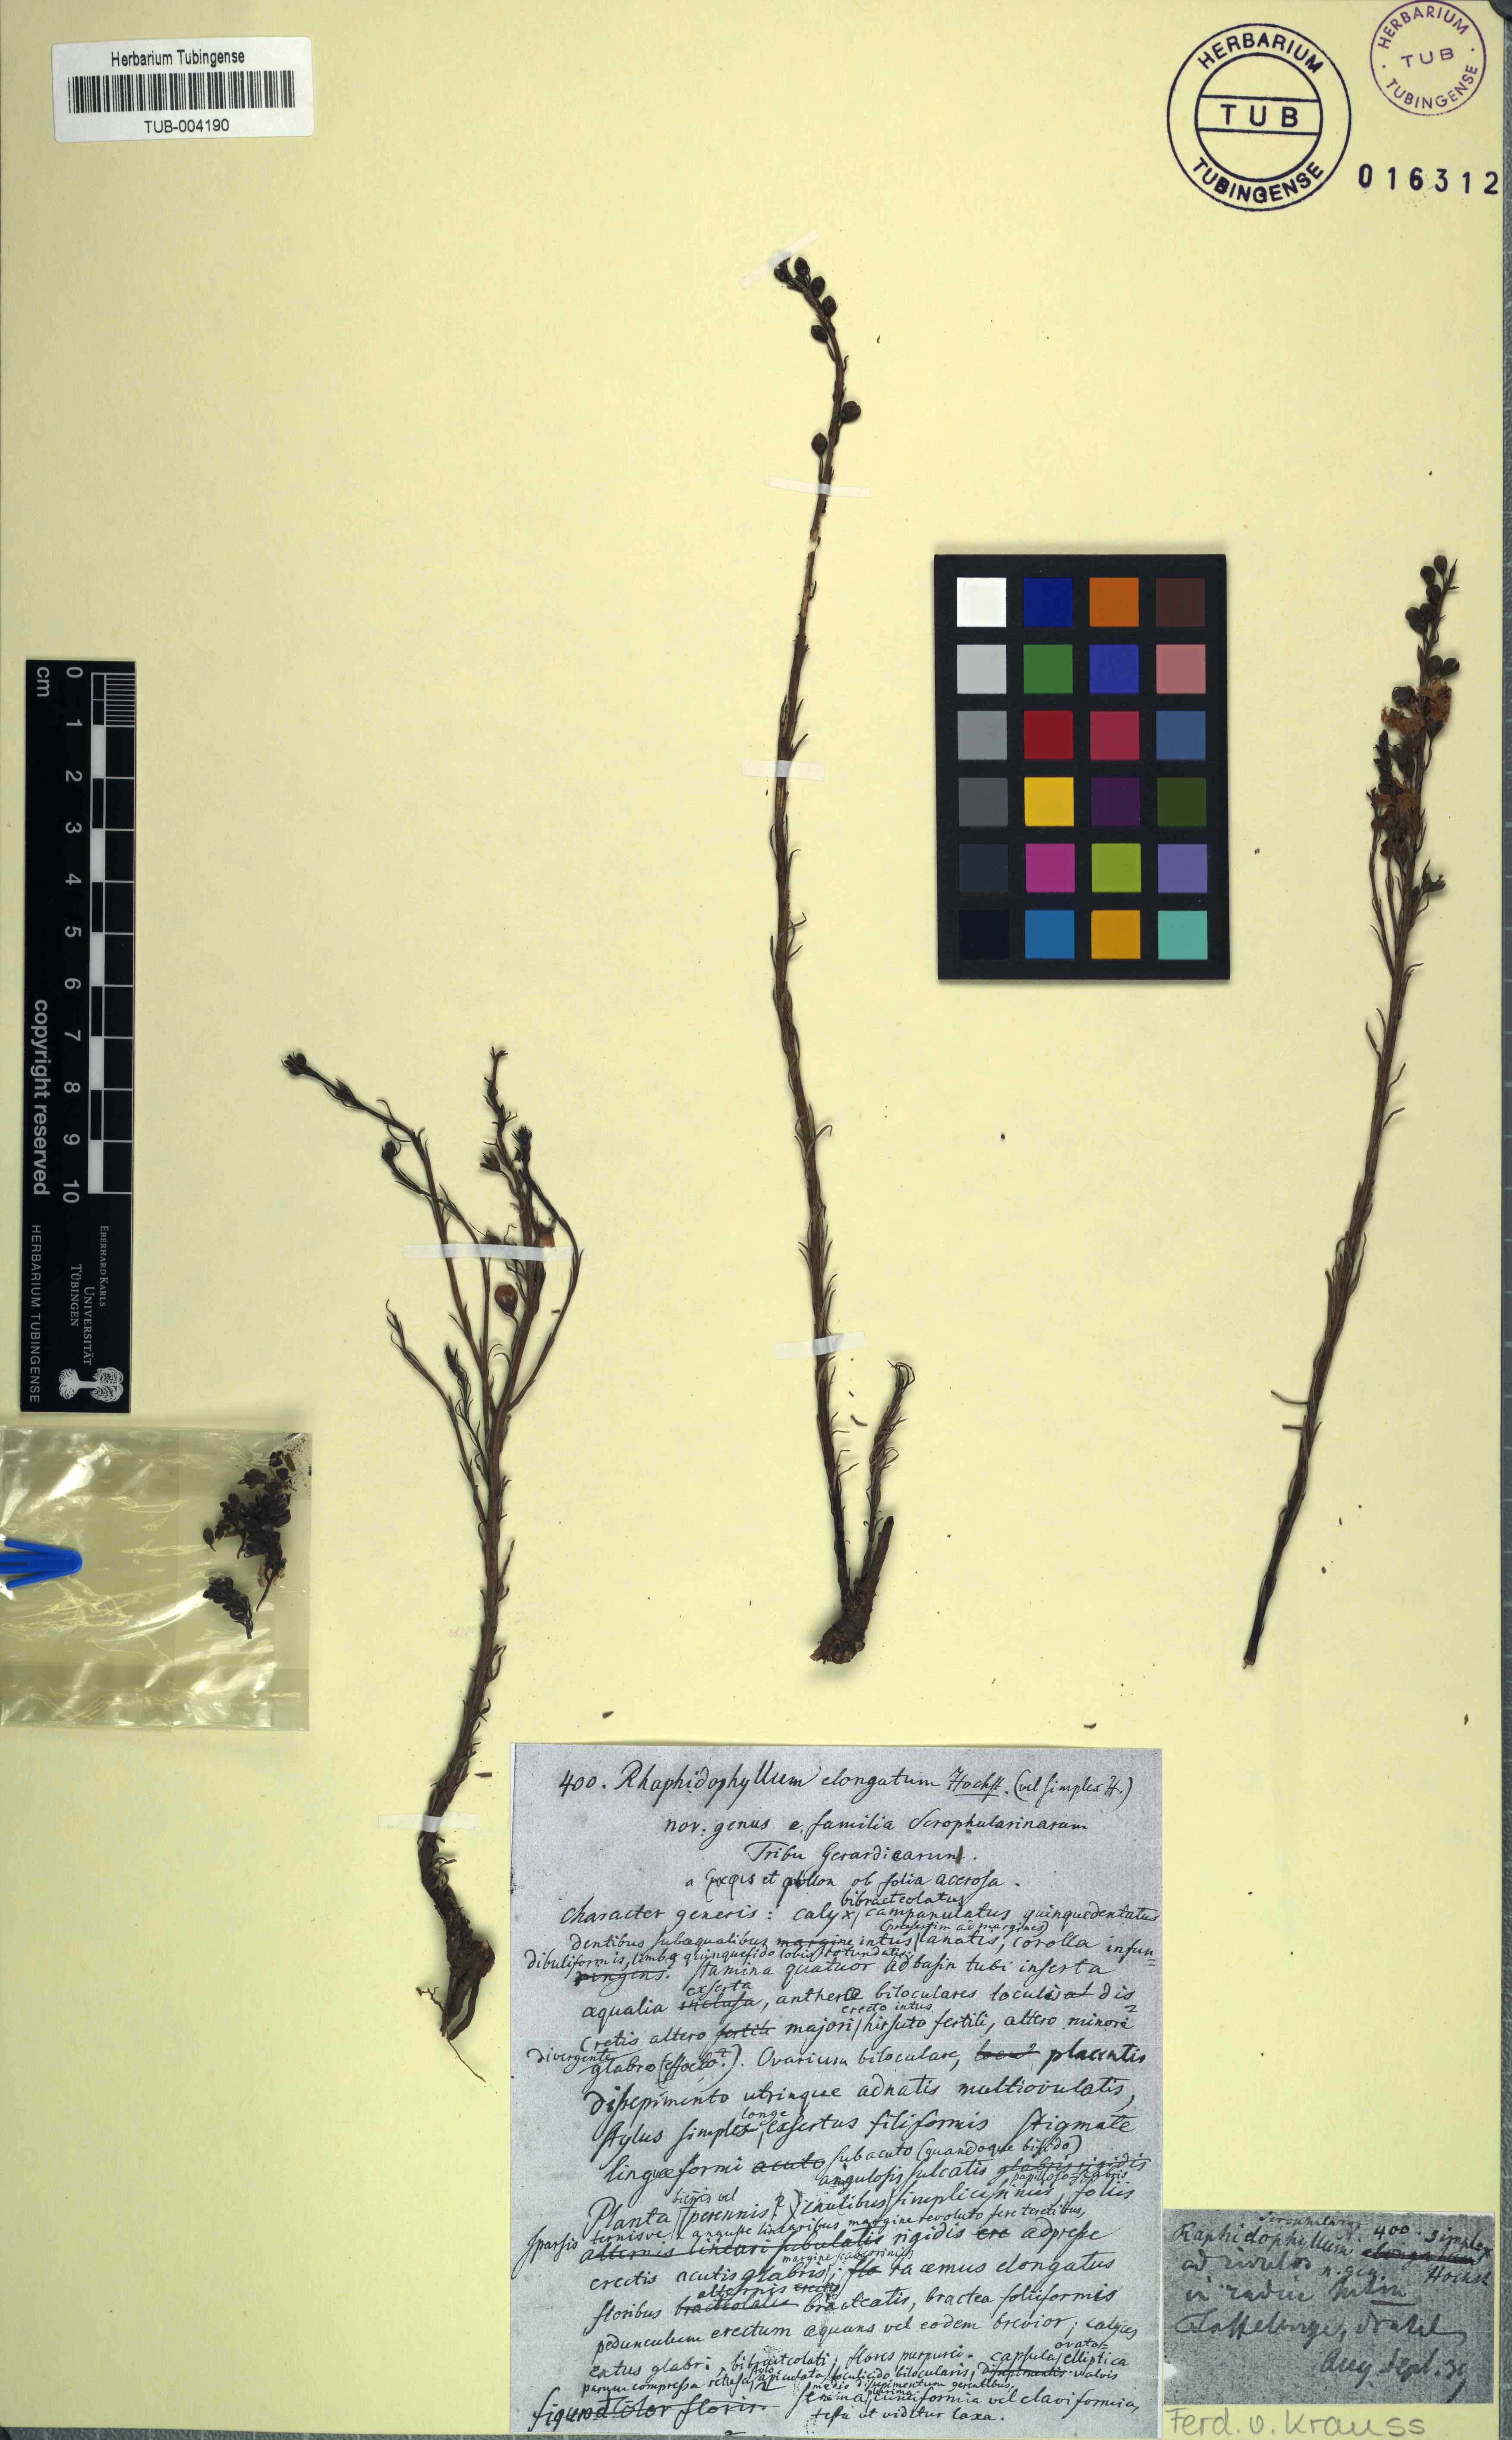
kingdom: Plantae
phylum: Tracheophyta
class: Magnoliopsida
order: Lamiales
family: Orobanchaceae
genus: Sopubia
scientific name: Sopubia simplex
